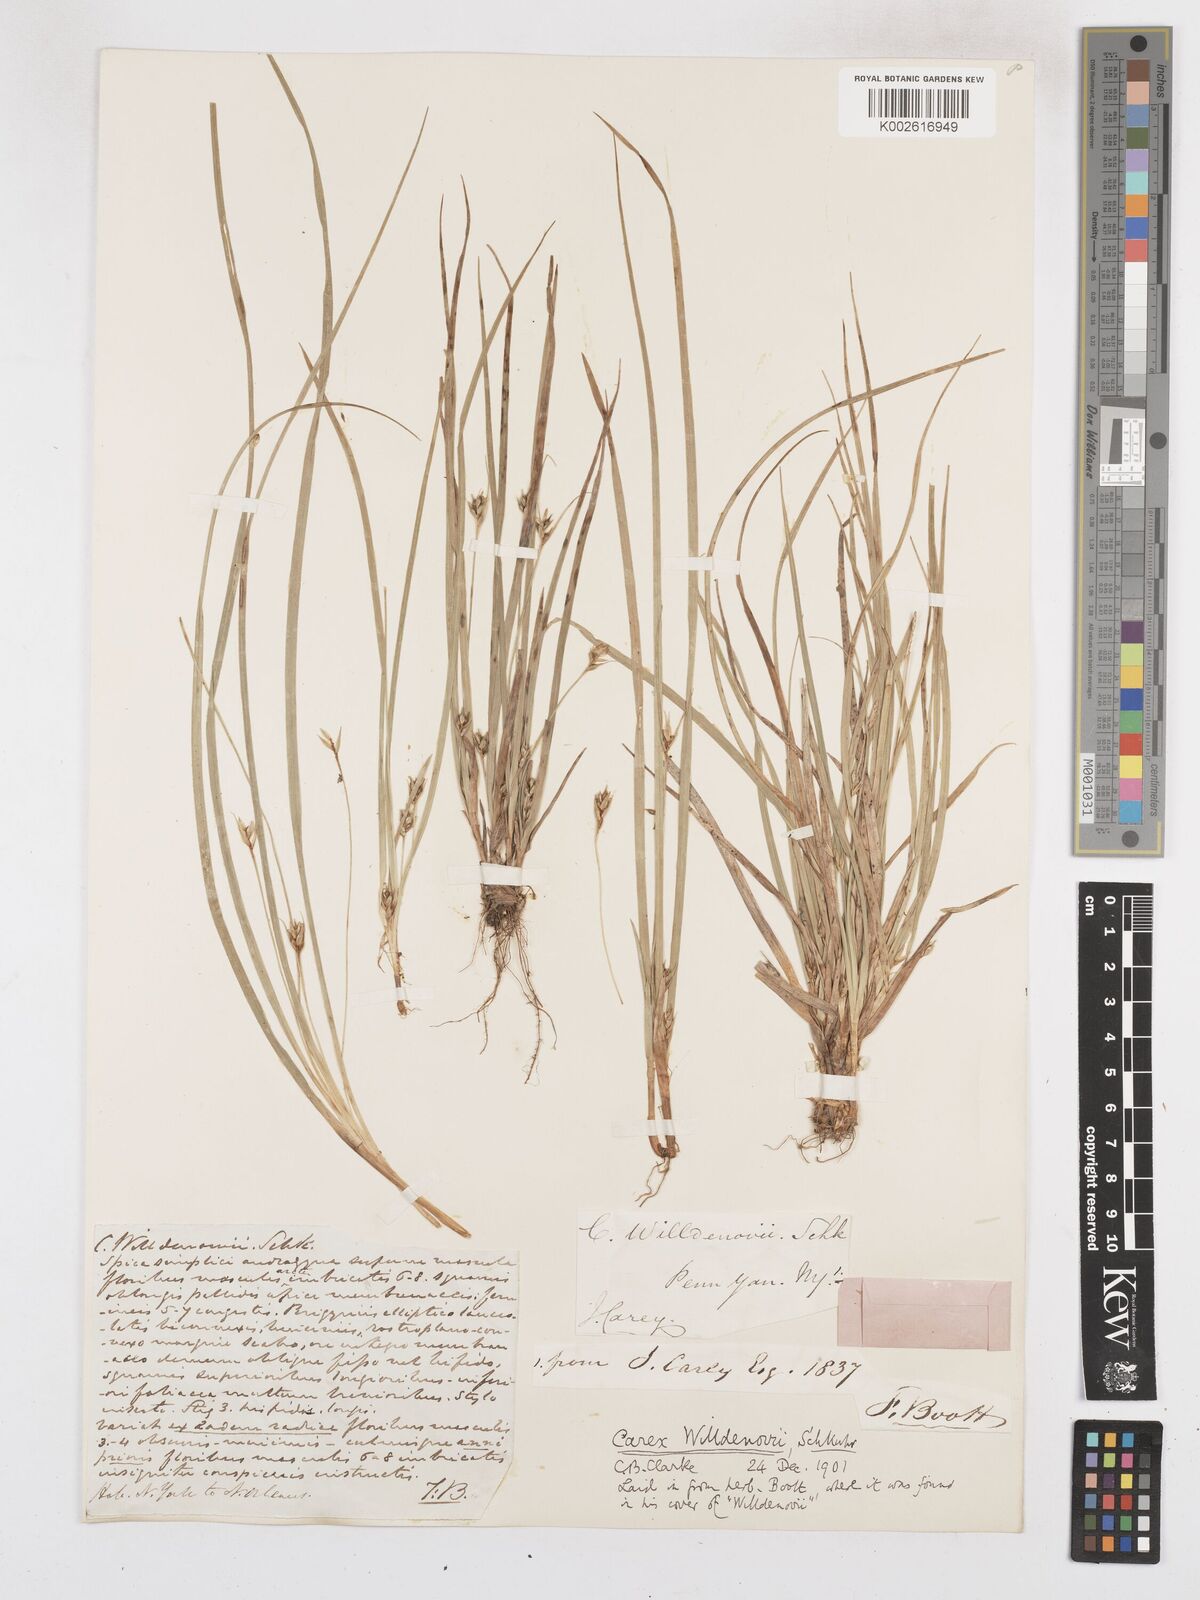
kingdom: Plantae
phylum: Tracheophyta
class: Liliopsida
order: Poales
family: Cyperaceae
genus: Carex
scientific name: Carex willdenowii
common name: Willdenow's sedge
